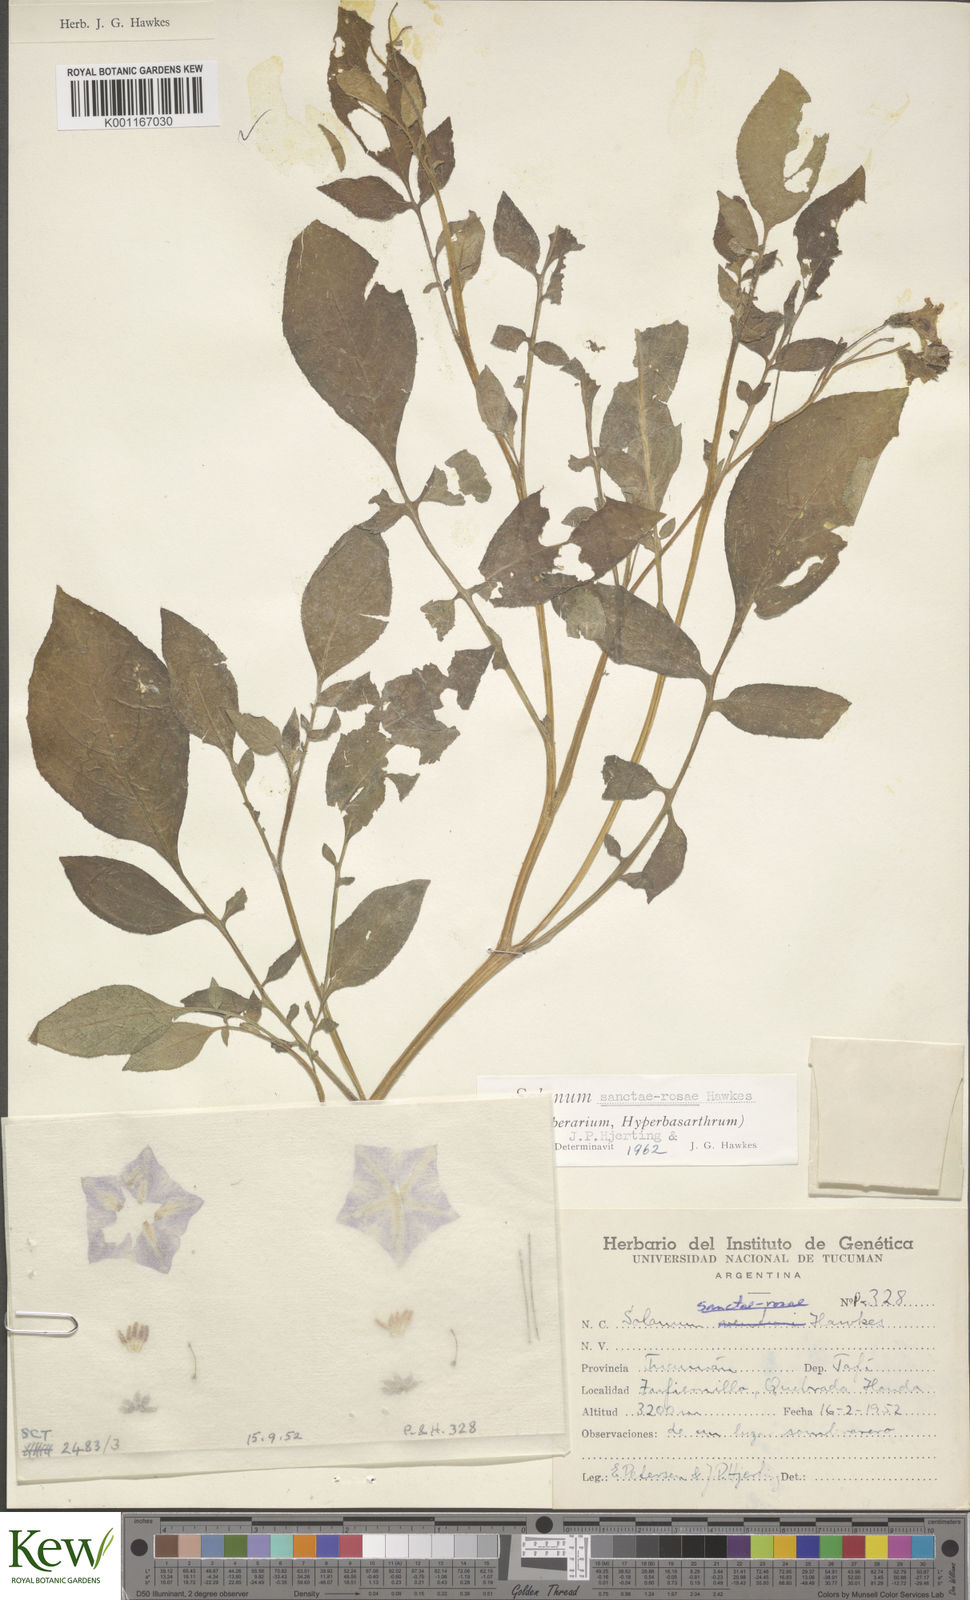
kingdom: Plantae
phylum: Tracheophyta
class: Magnoliopsida
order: Solanales
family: Solanaceae
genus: Solanum
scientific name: Solanum boliviense
